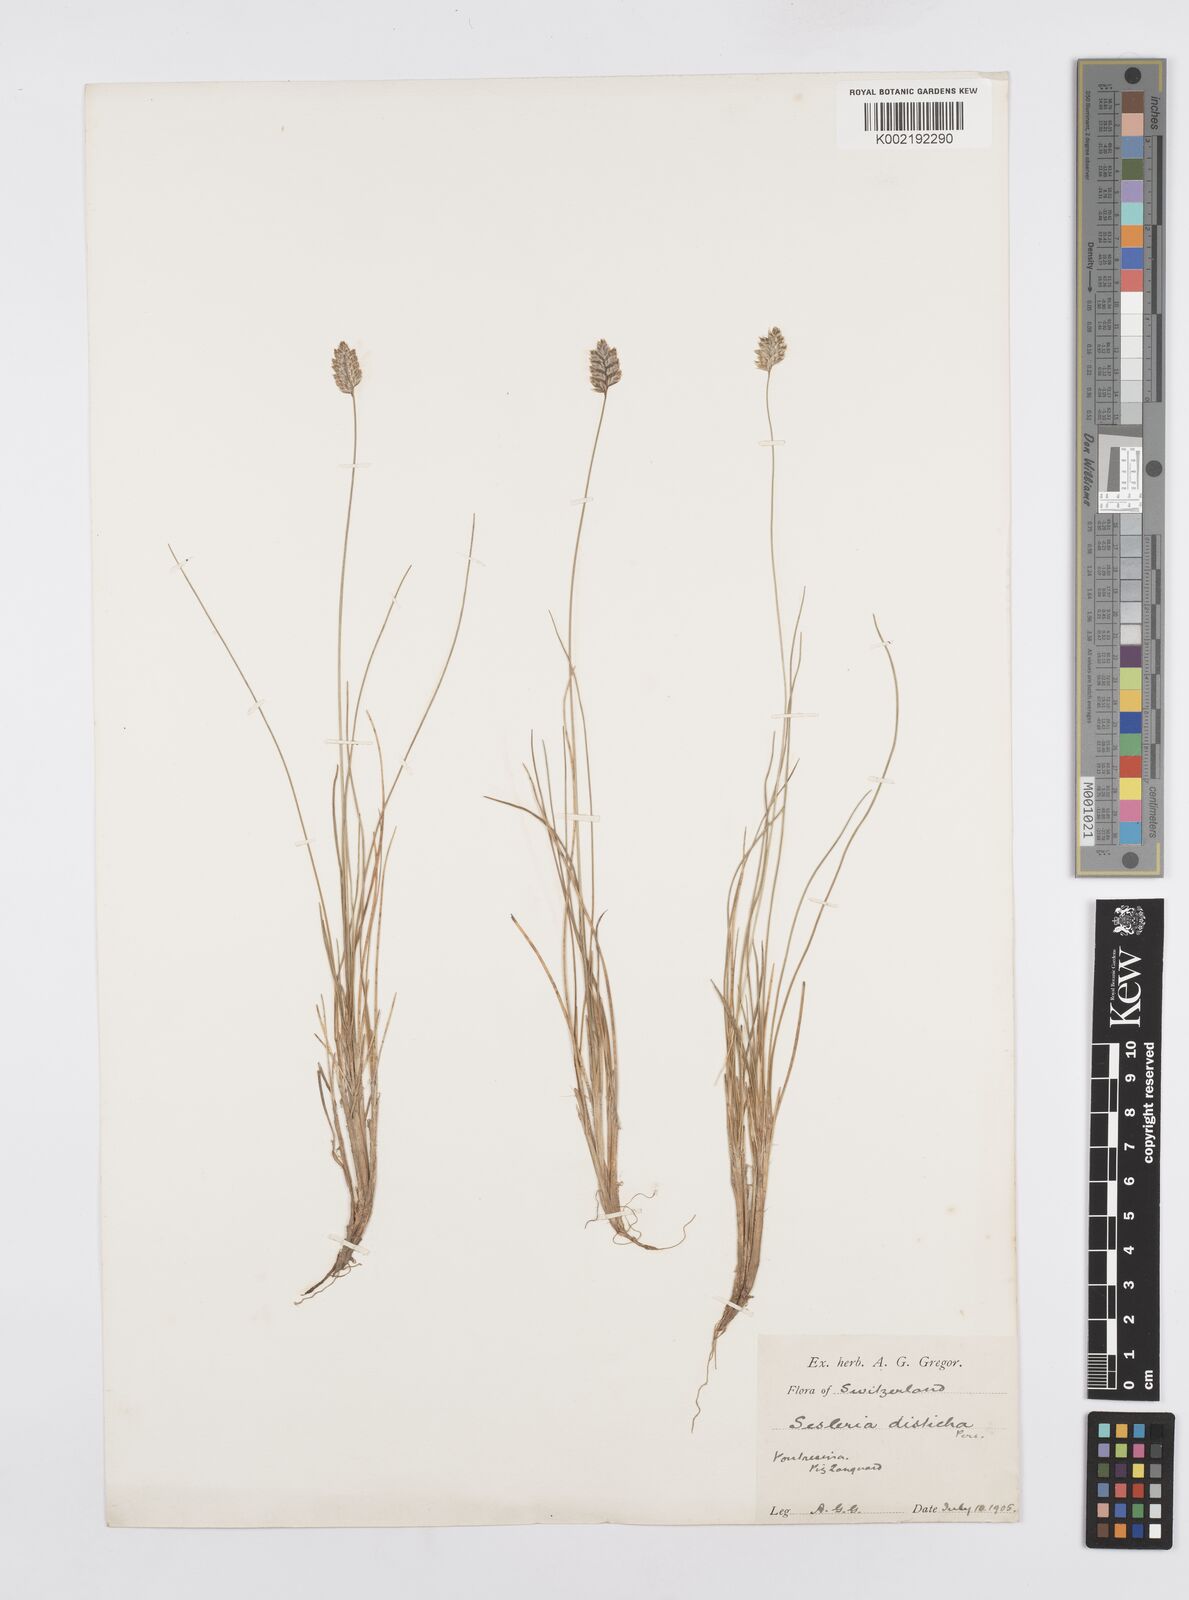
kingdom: Plantae
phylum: Tracheophyta
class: Liliopsida
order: Poales
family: Poaceae
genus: Oreochloa
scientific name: Oreochloa disticha
